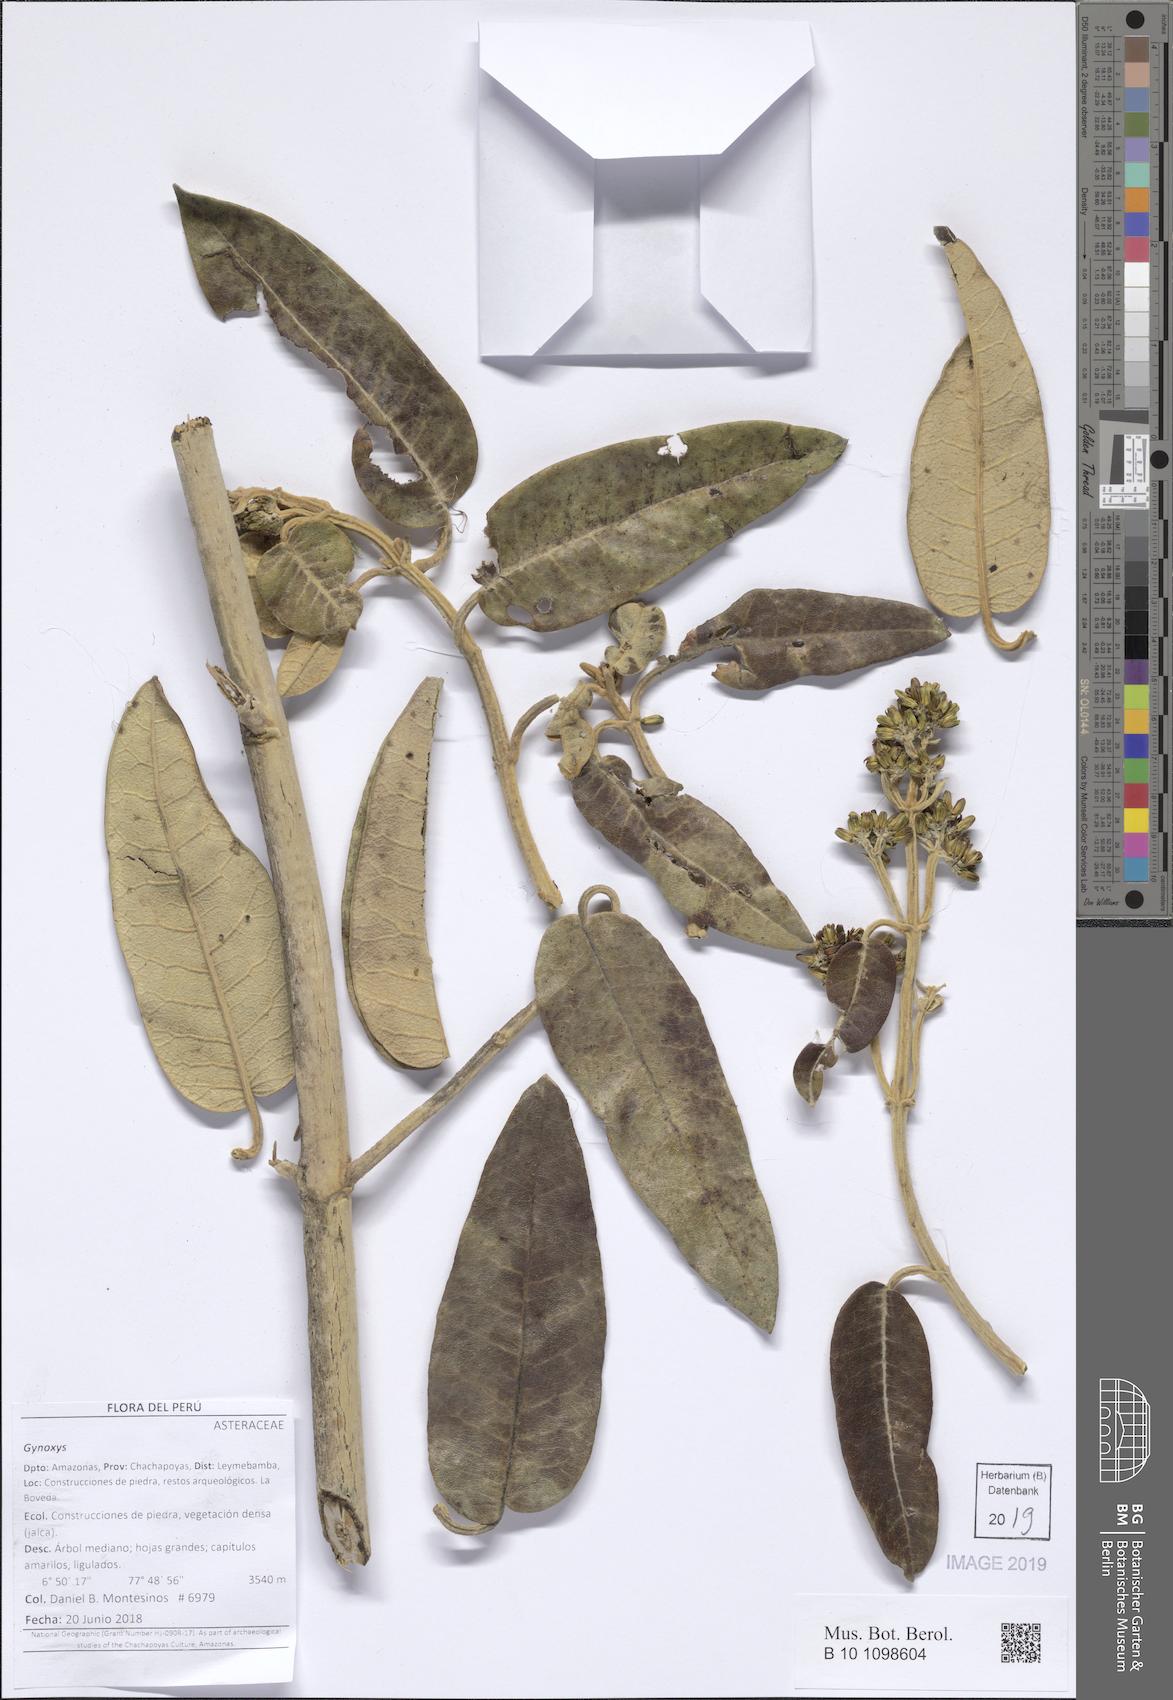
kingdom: Plantae
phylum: Tracheophyta
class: Magnoliopsida
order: Asterales
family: Asteraceae
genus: Gynoxys
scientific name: Gynoxys soukupii
